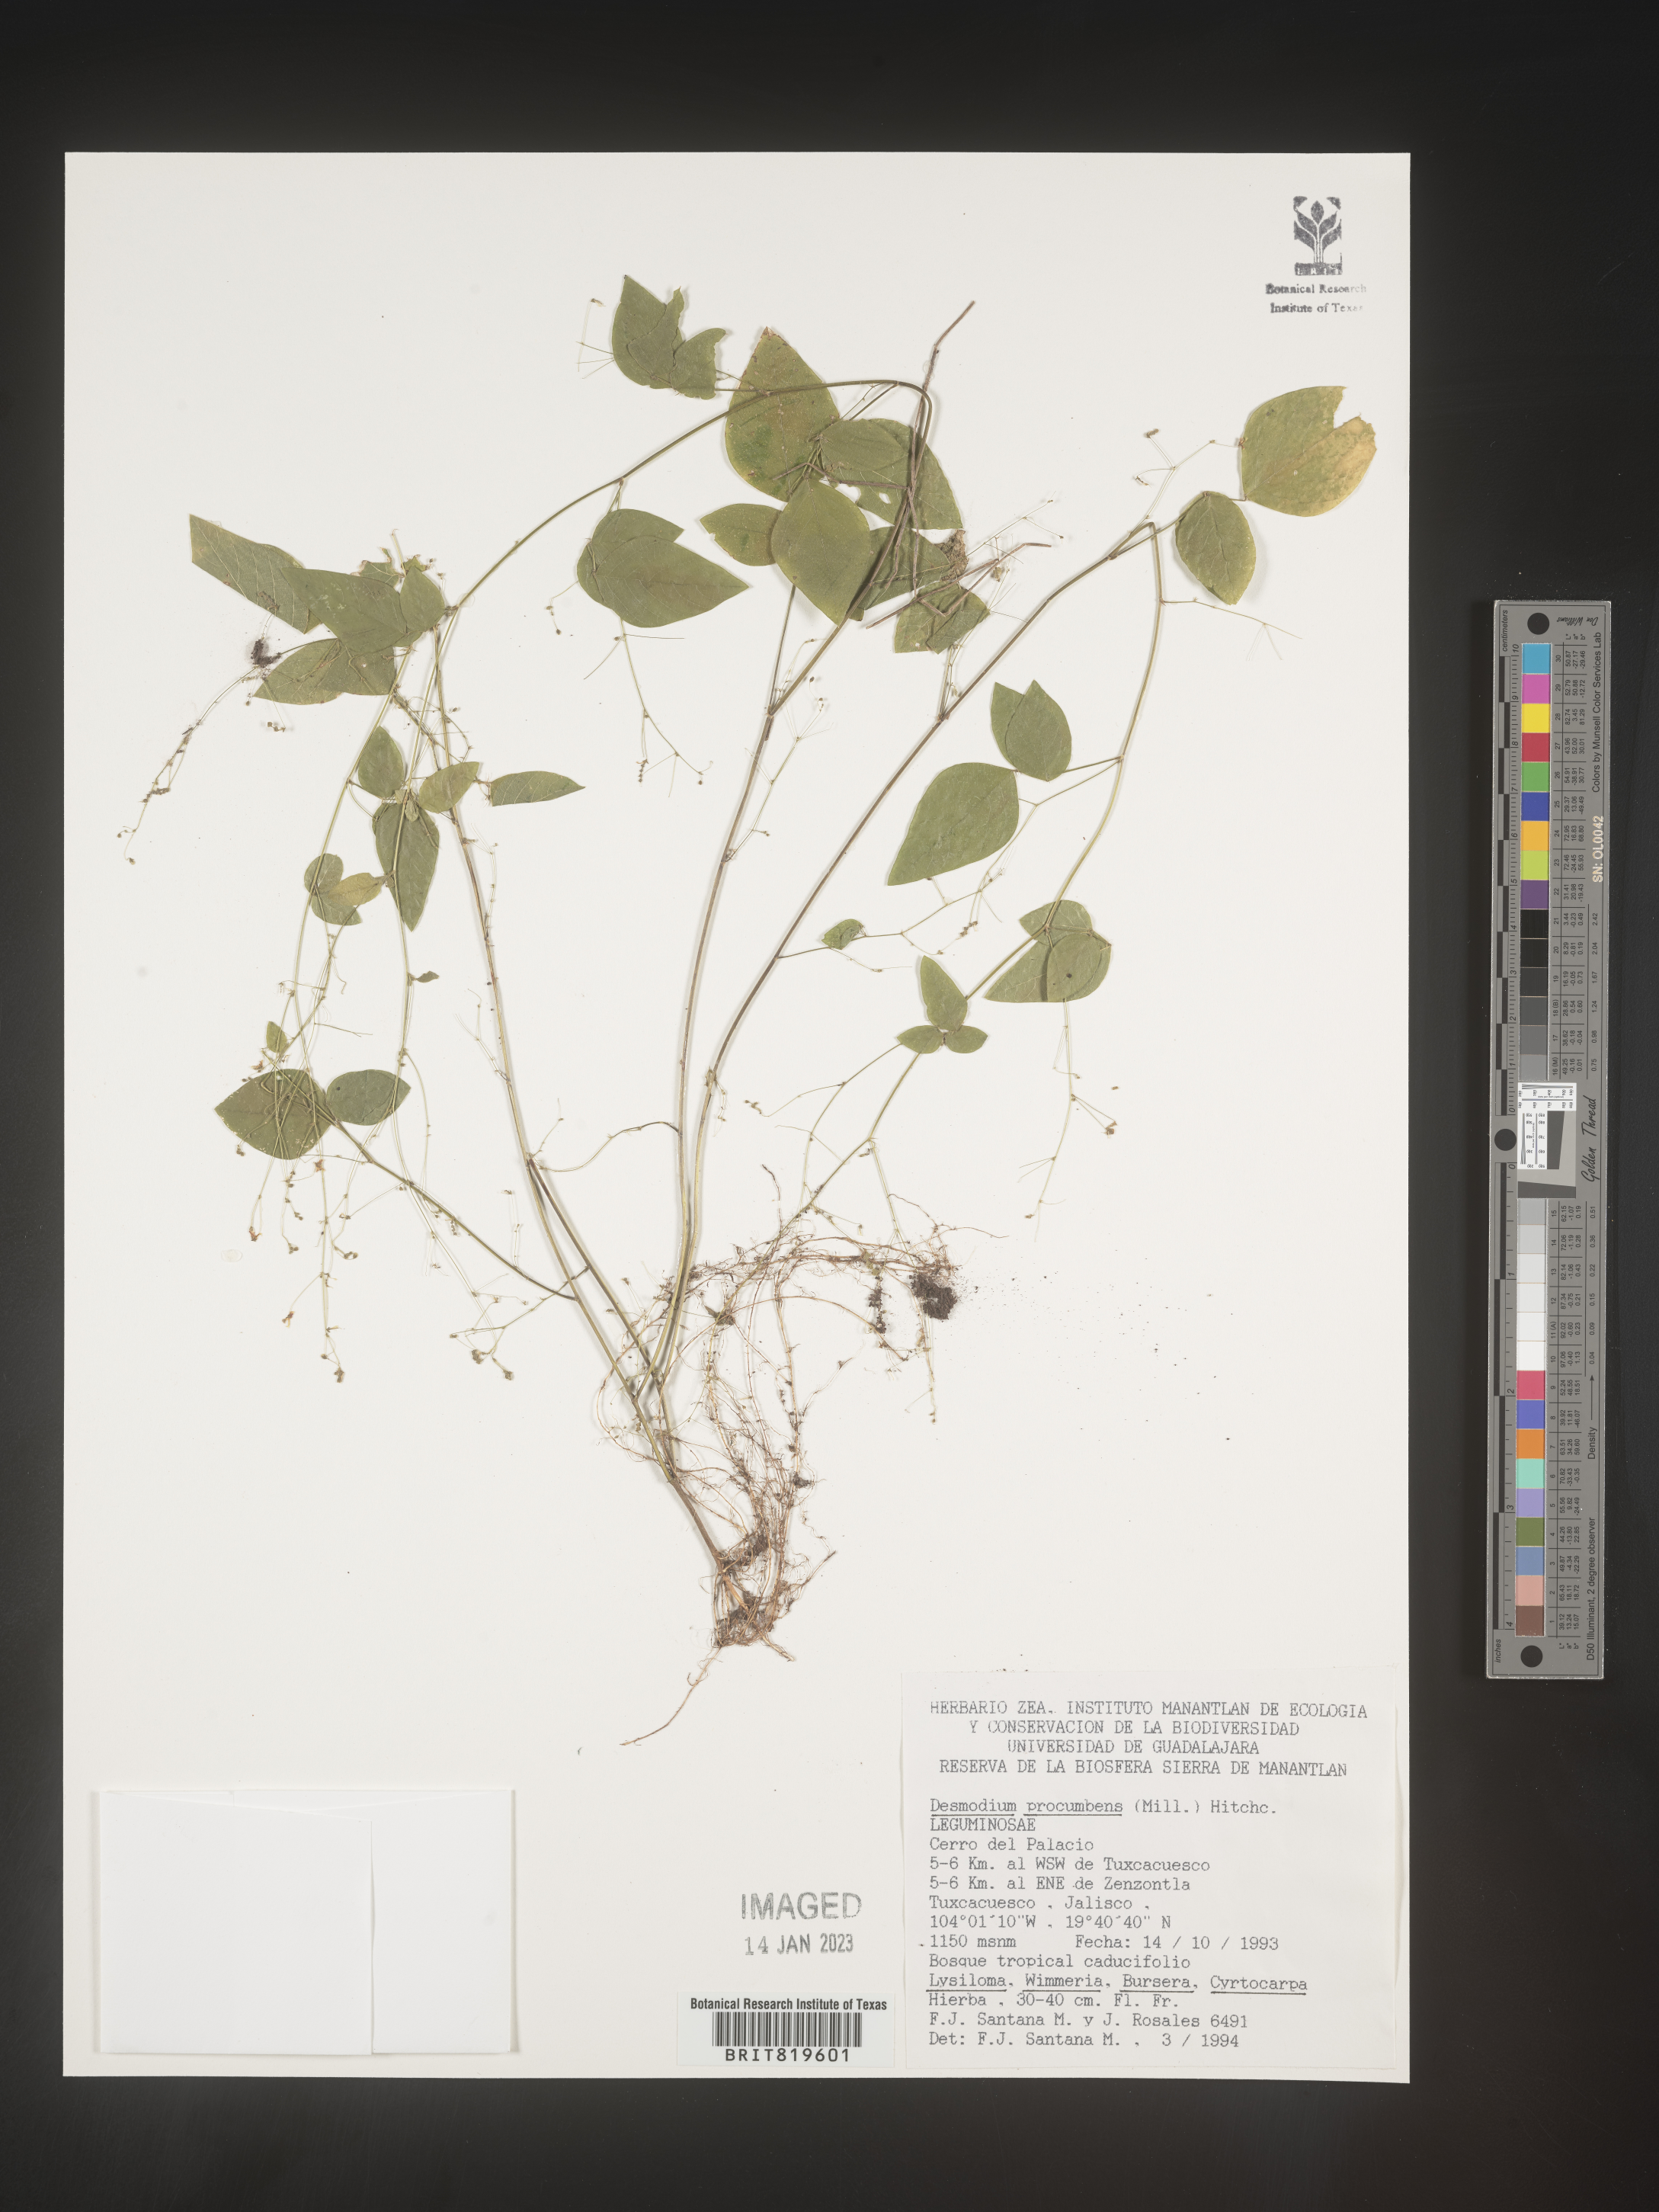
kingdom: Plantae
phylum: Tracheophyta
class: Magnoliopsida
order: Fabales
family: Fabaceae
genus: Desmodium
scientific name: Desmodium
